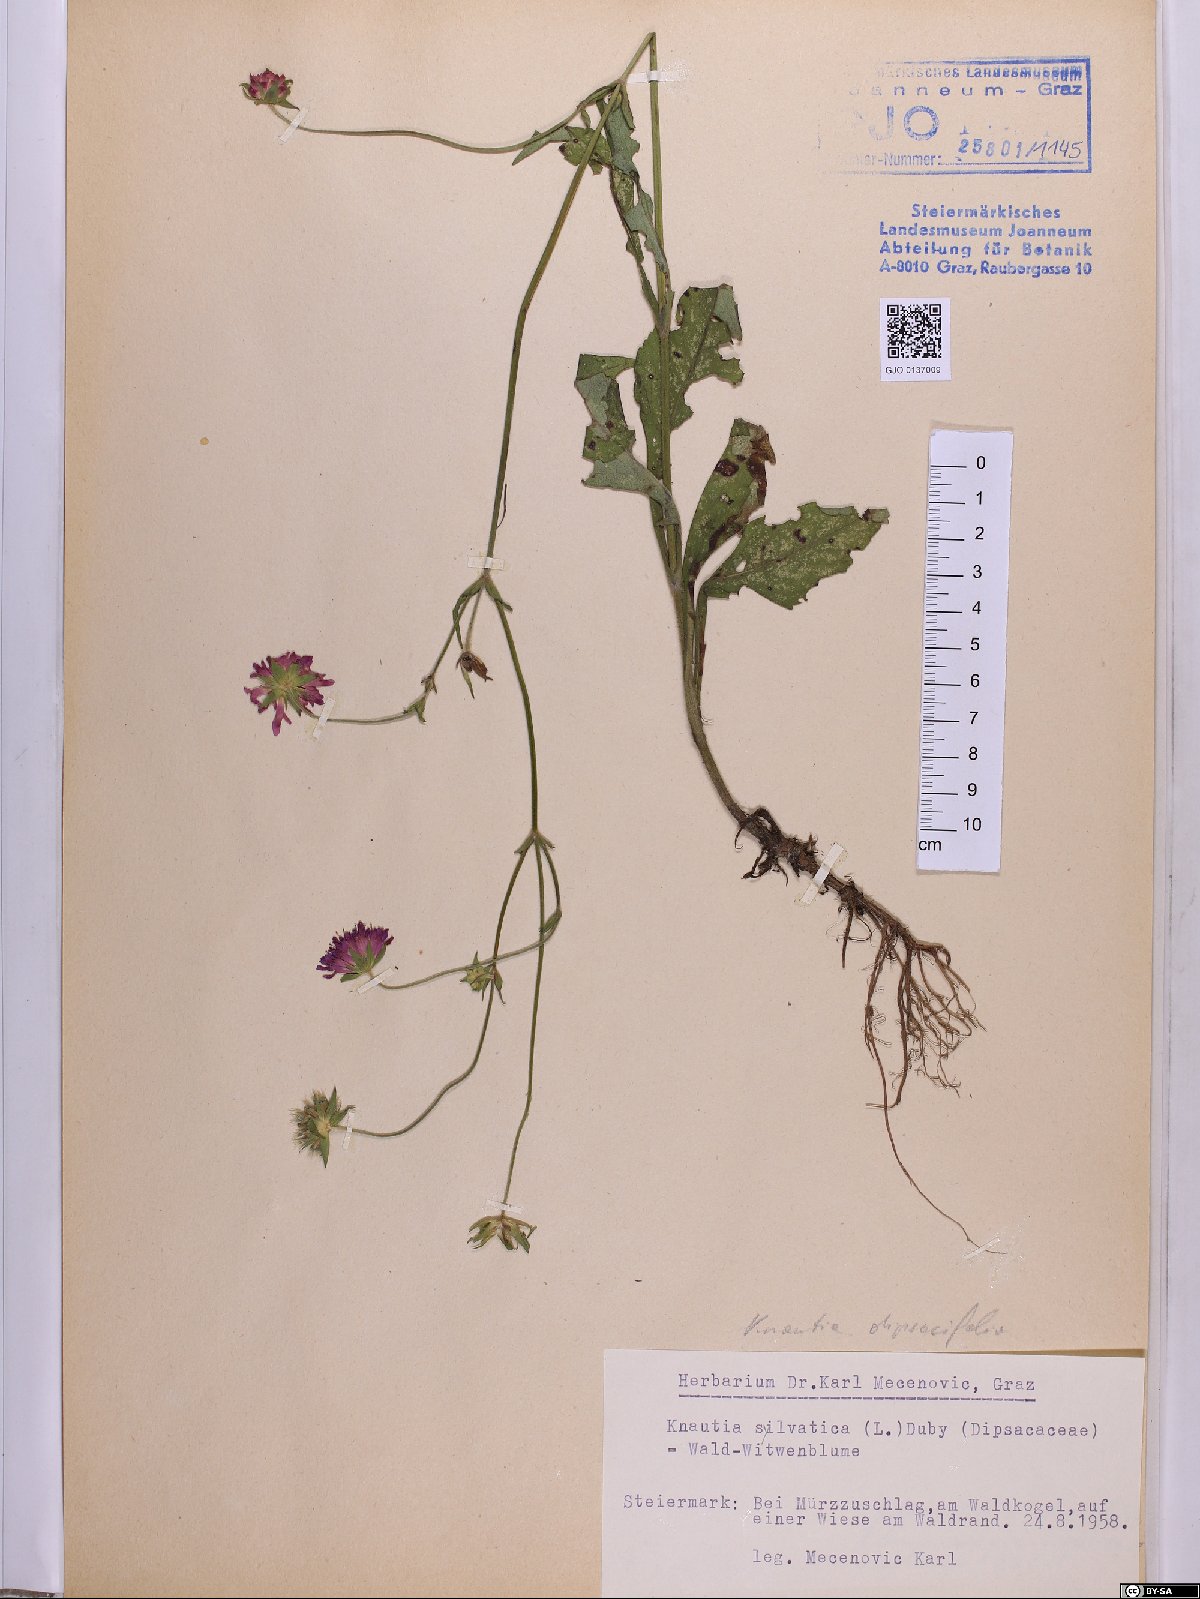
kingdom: Plantae
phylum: Tracheophyta
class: Magnoliopsida
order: Dipsacales
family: Caprifoliaceae
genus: Knautia
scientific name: Knautia drymeia
